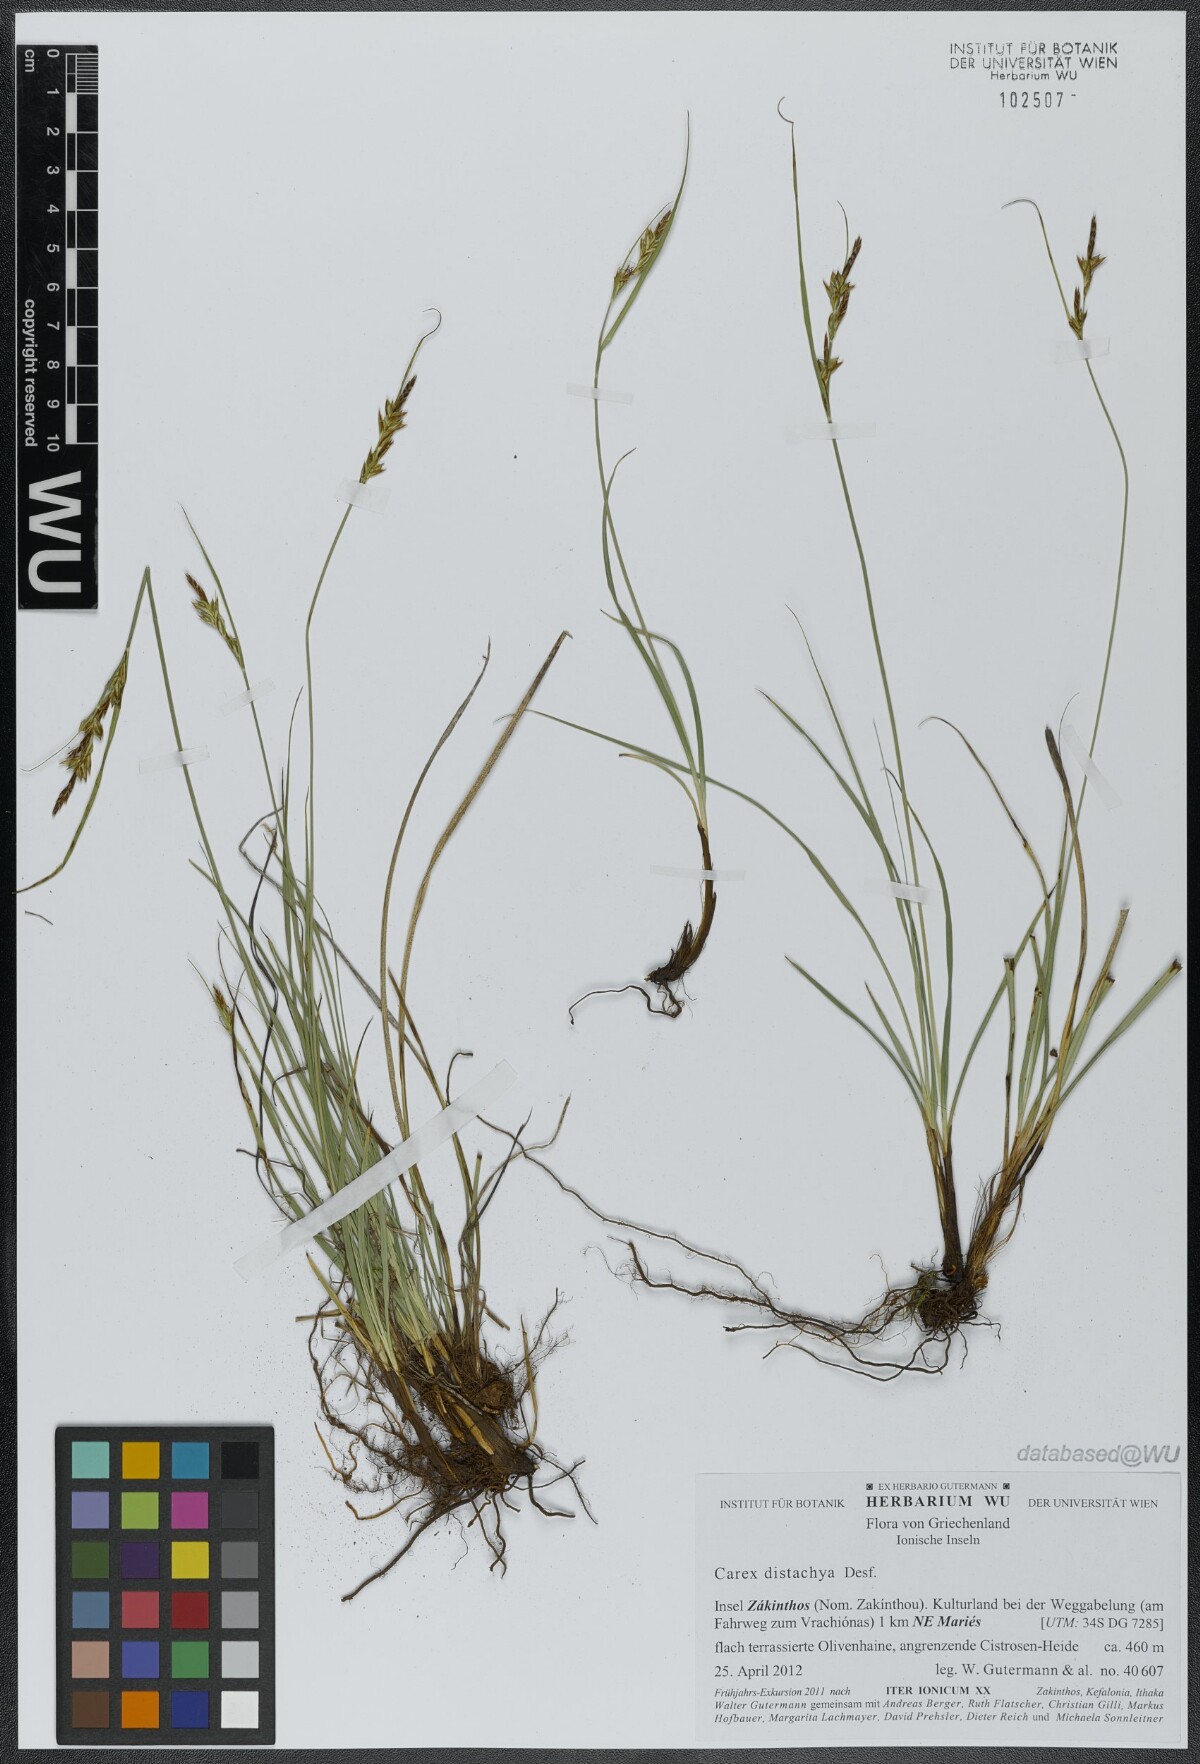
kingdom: Plantae
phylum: Tracheophyta
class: Liliopsida
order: Poales
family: Cyperaceae
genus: Carex
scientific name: Carex distachya
